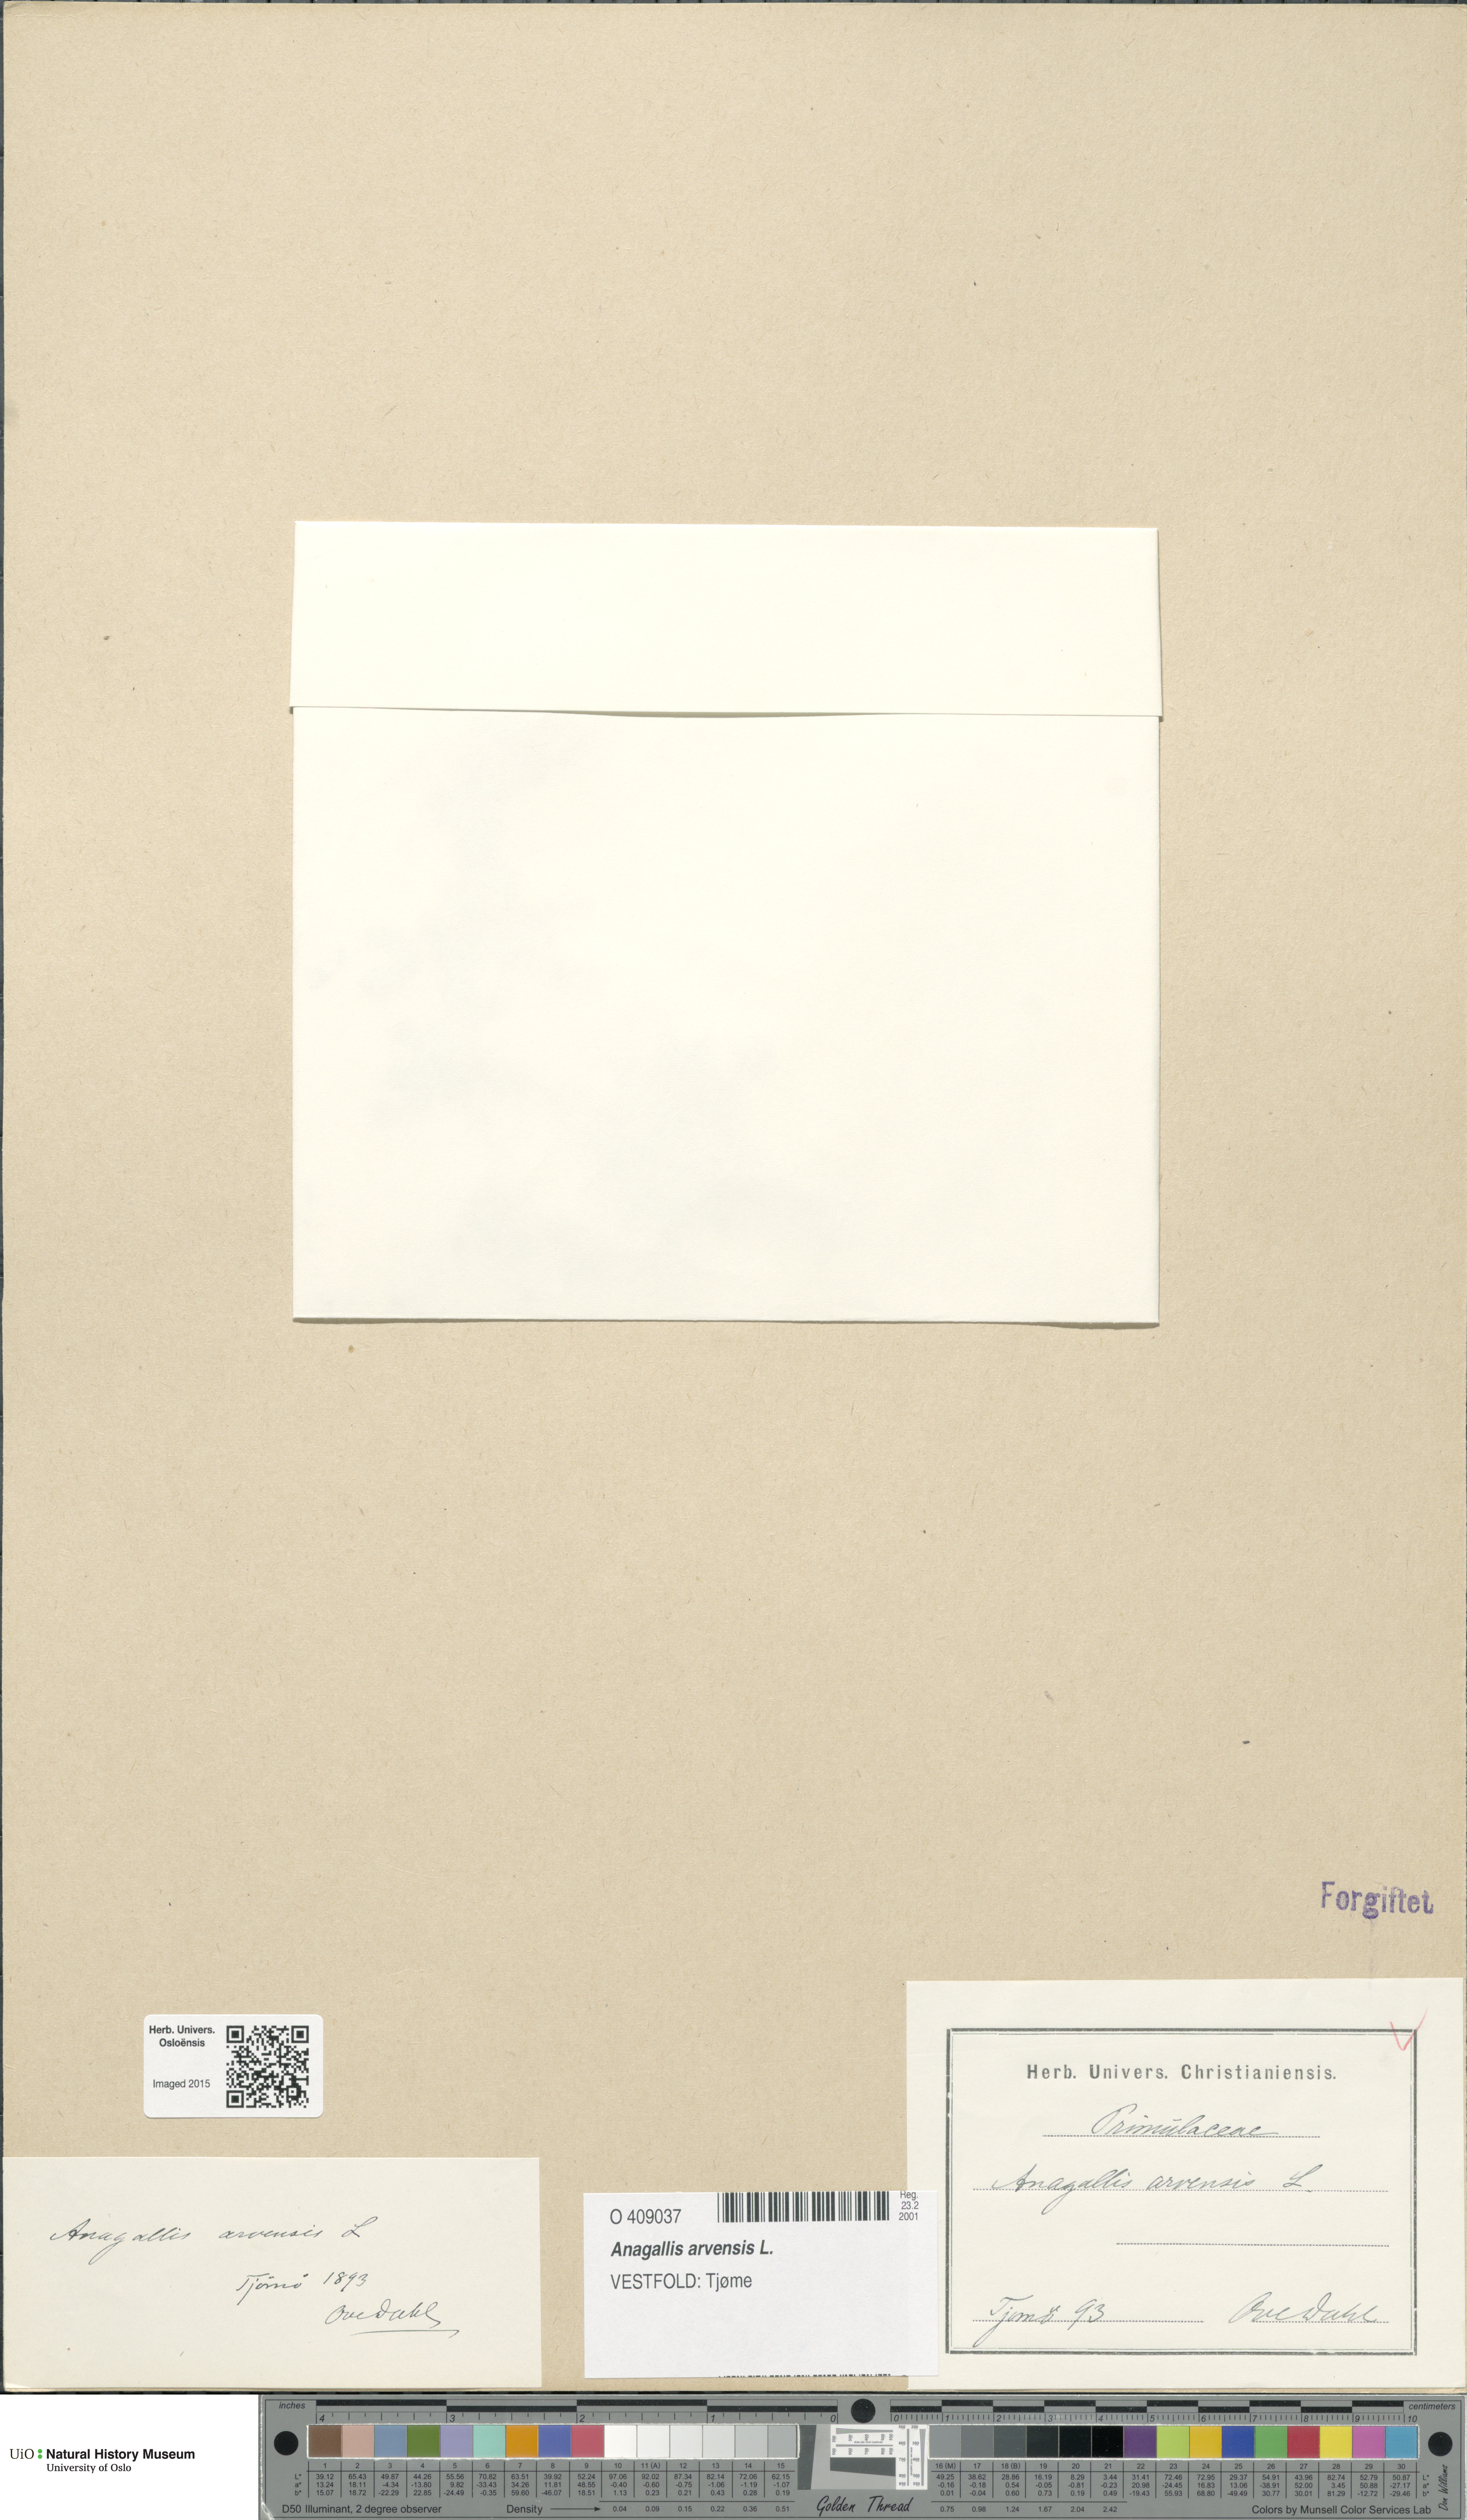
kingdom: Plantae
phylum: Tracheophyta
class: Magnoliopsida
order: Ericales
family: Primulaceae
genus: Lysimachia
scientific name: Lysimachia arvensis
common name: Scarlet pimpernel
